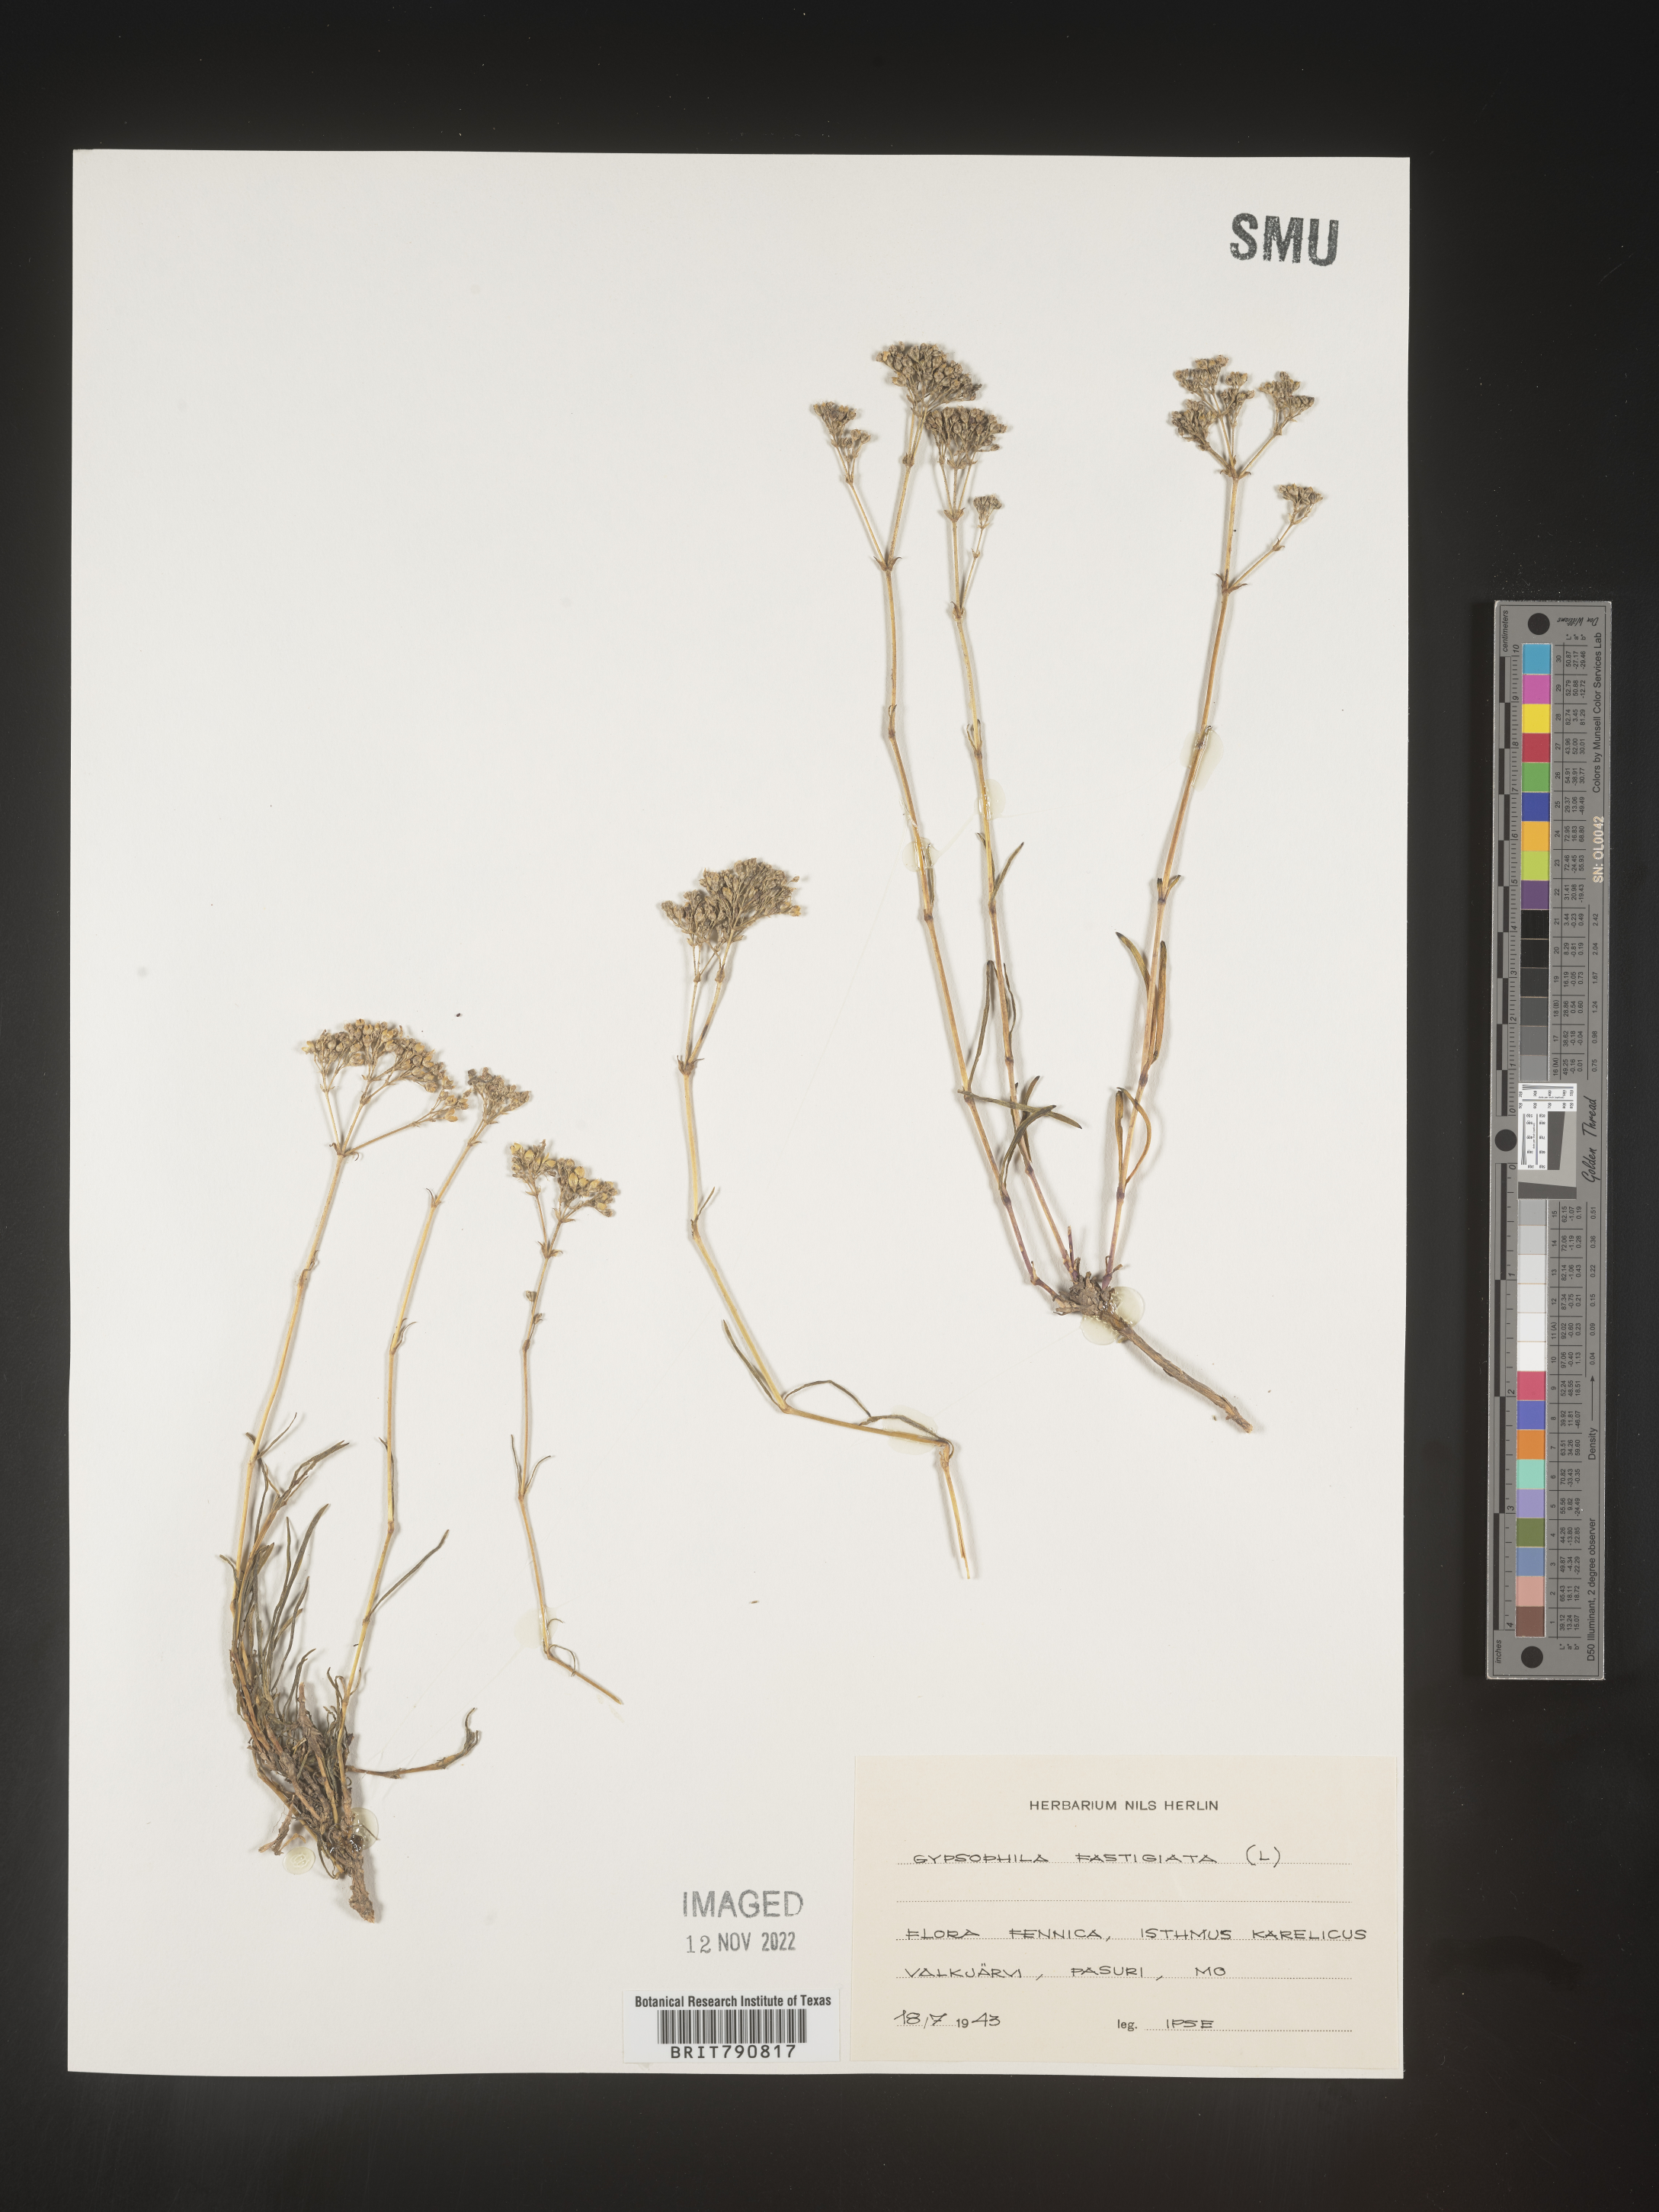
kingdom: Plantae
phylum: Tracheophyta
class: Magnoliopsida
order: Caryophyllales
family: Caryophyllaceae
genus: Gypsophila
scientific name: Gypsophila
